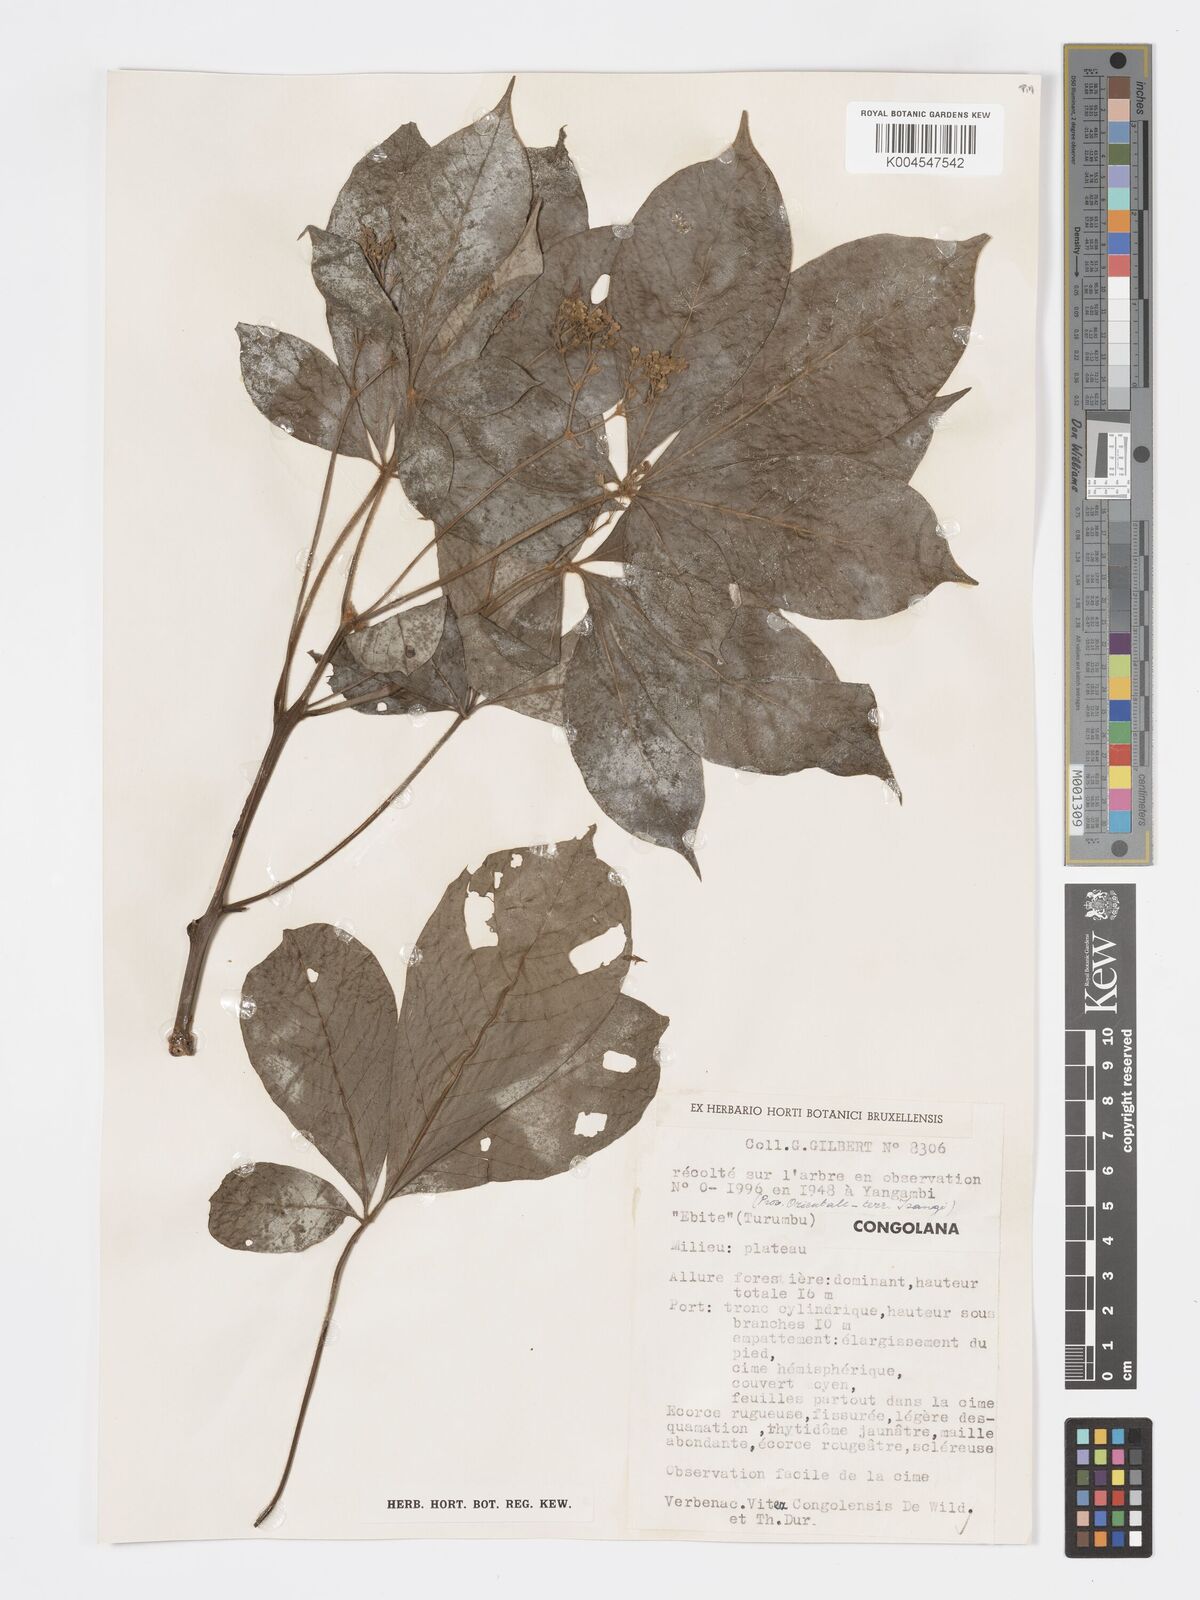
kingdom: Plantae
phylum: Tracheophyta
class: Magnoliopsida
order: Lamiales
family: Lamiaceae
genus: Vitex
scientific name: Vitex congolensis
